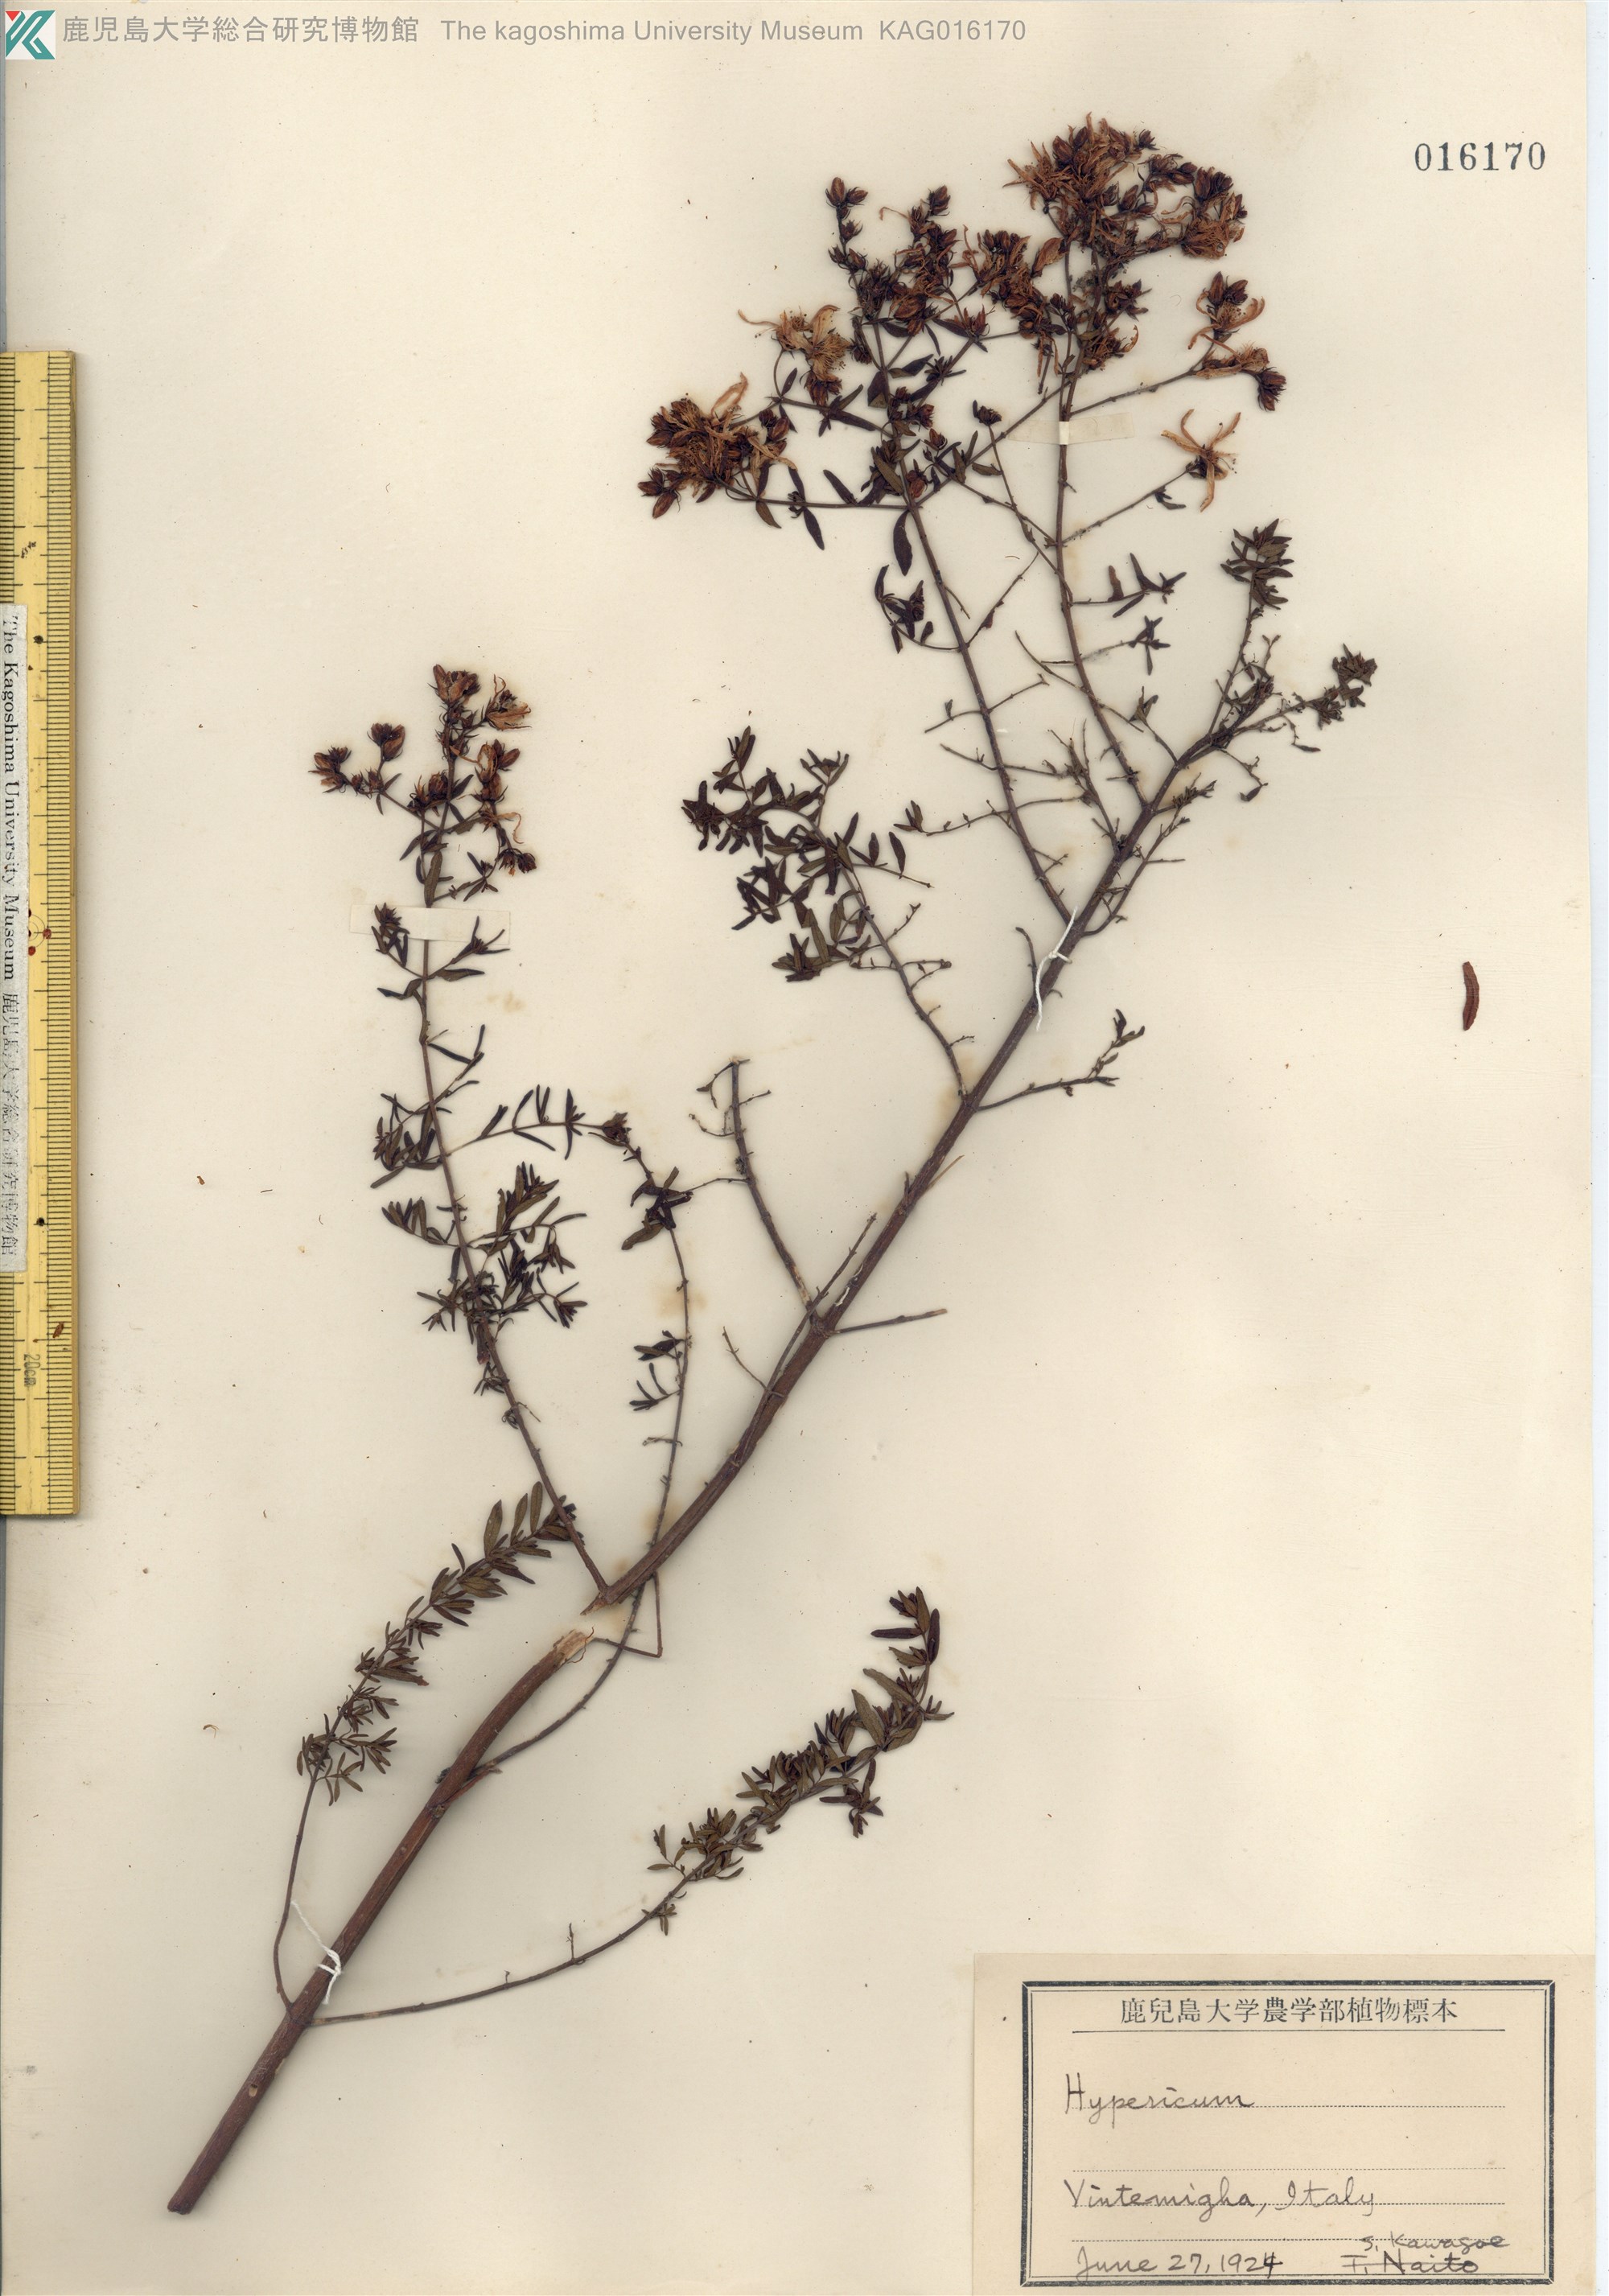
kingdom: Plantae
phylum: Tracheophyta
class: Magnoliopsida
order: Malpighiales
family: Hypericaceae
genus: Hypericum
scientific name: Hypericum
